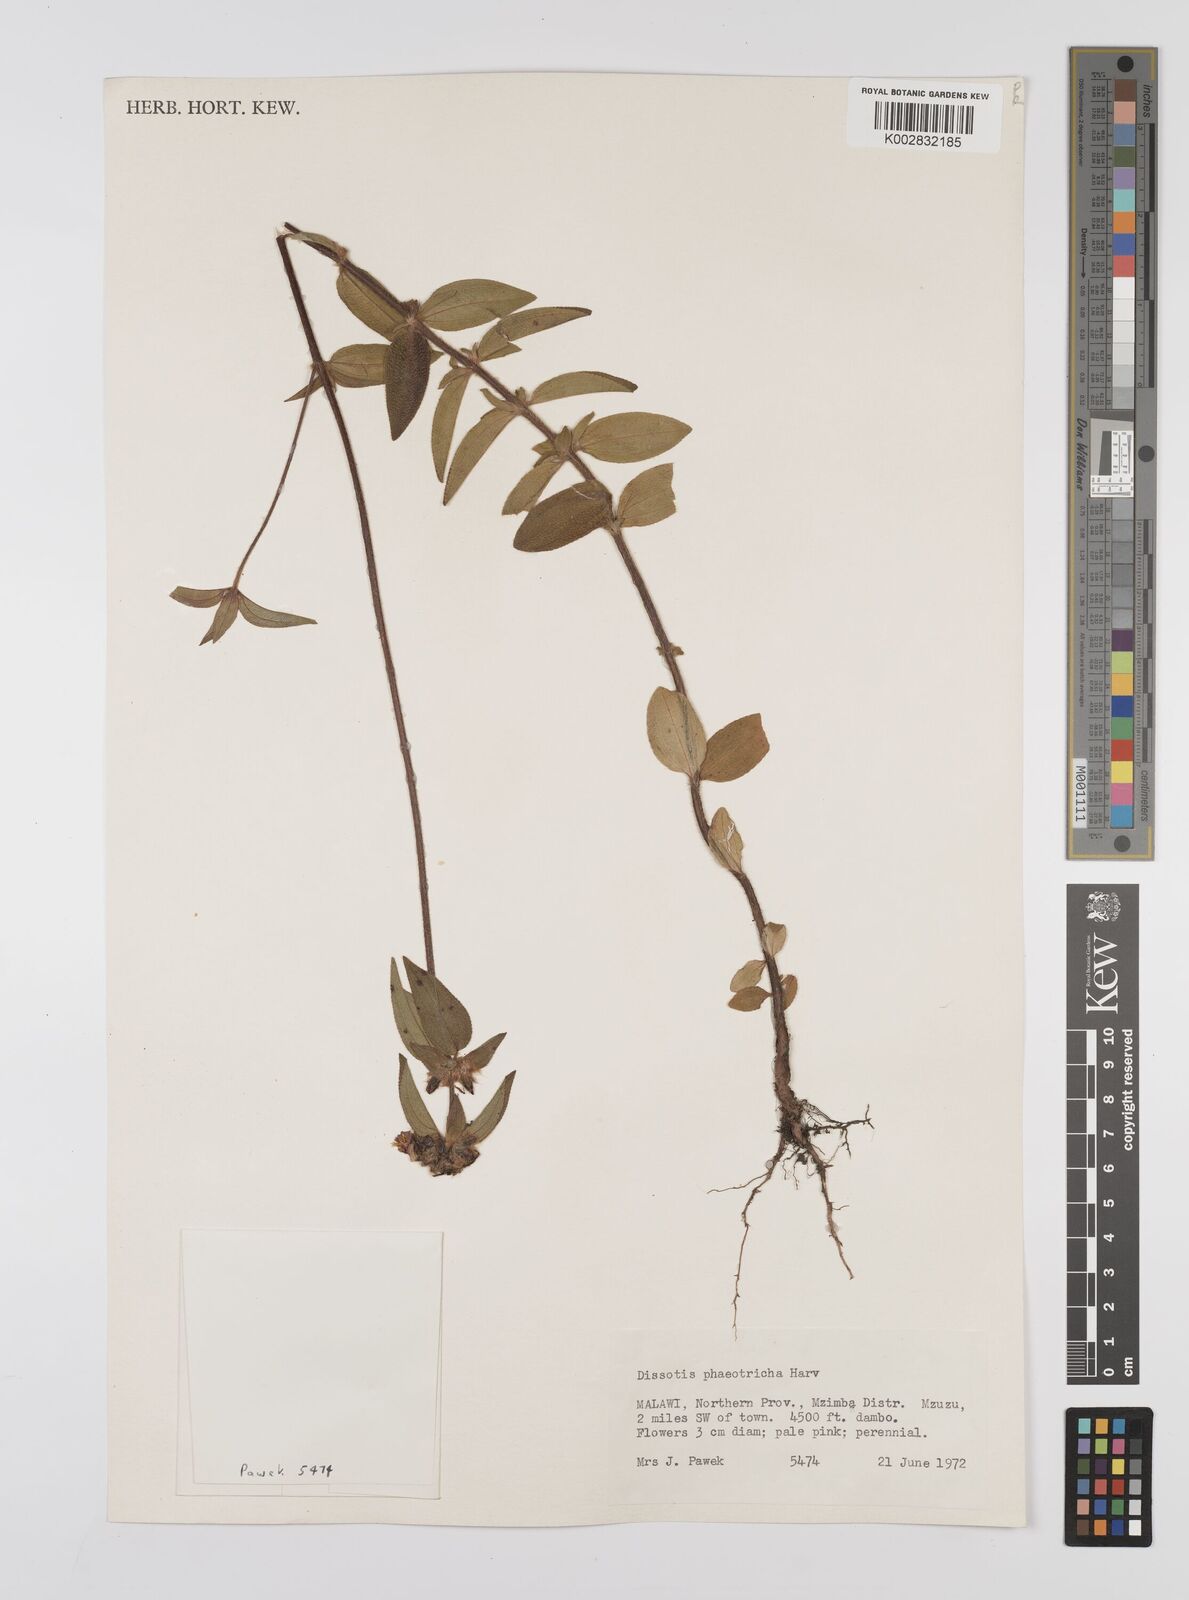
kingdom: Plantae
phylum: Tracheophyta
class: Magnoliopsida
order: Myrtales
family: Melastomataceae
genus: Antherotoma
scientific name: Antherotoma phaeotricha
